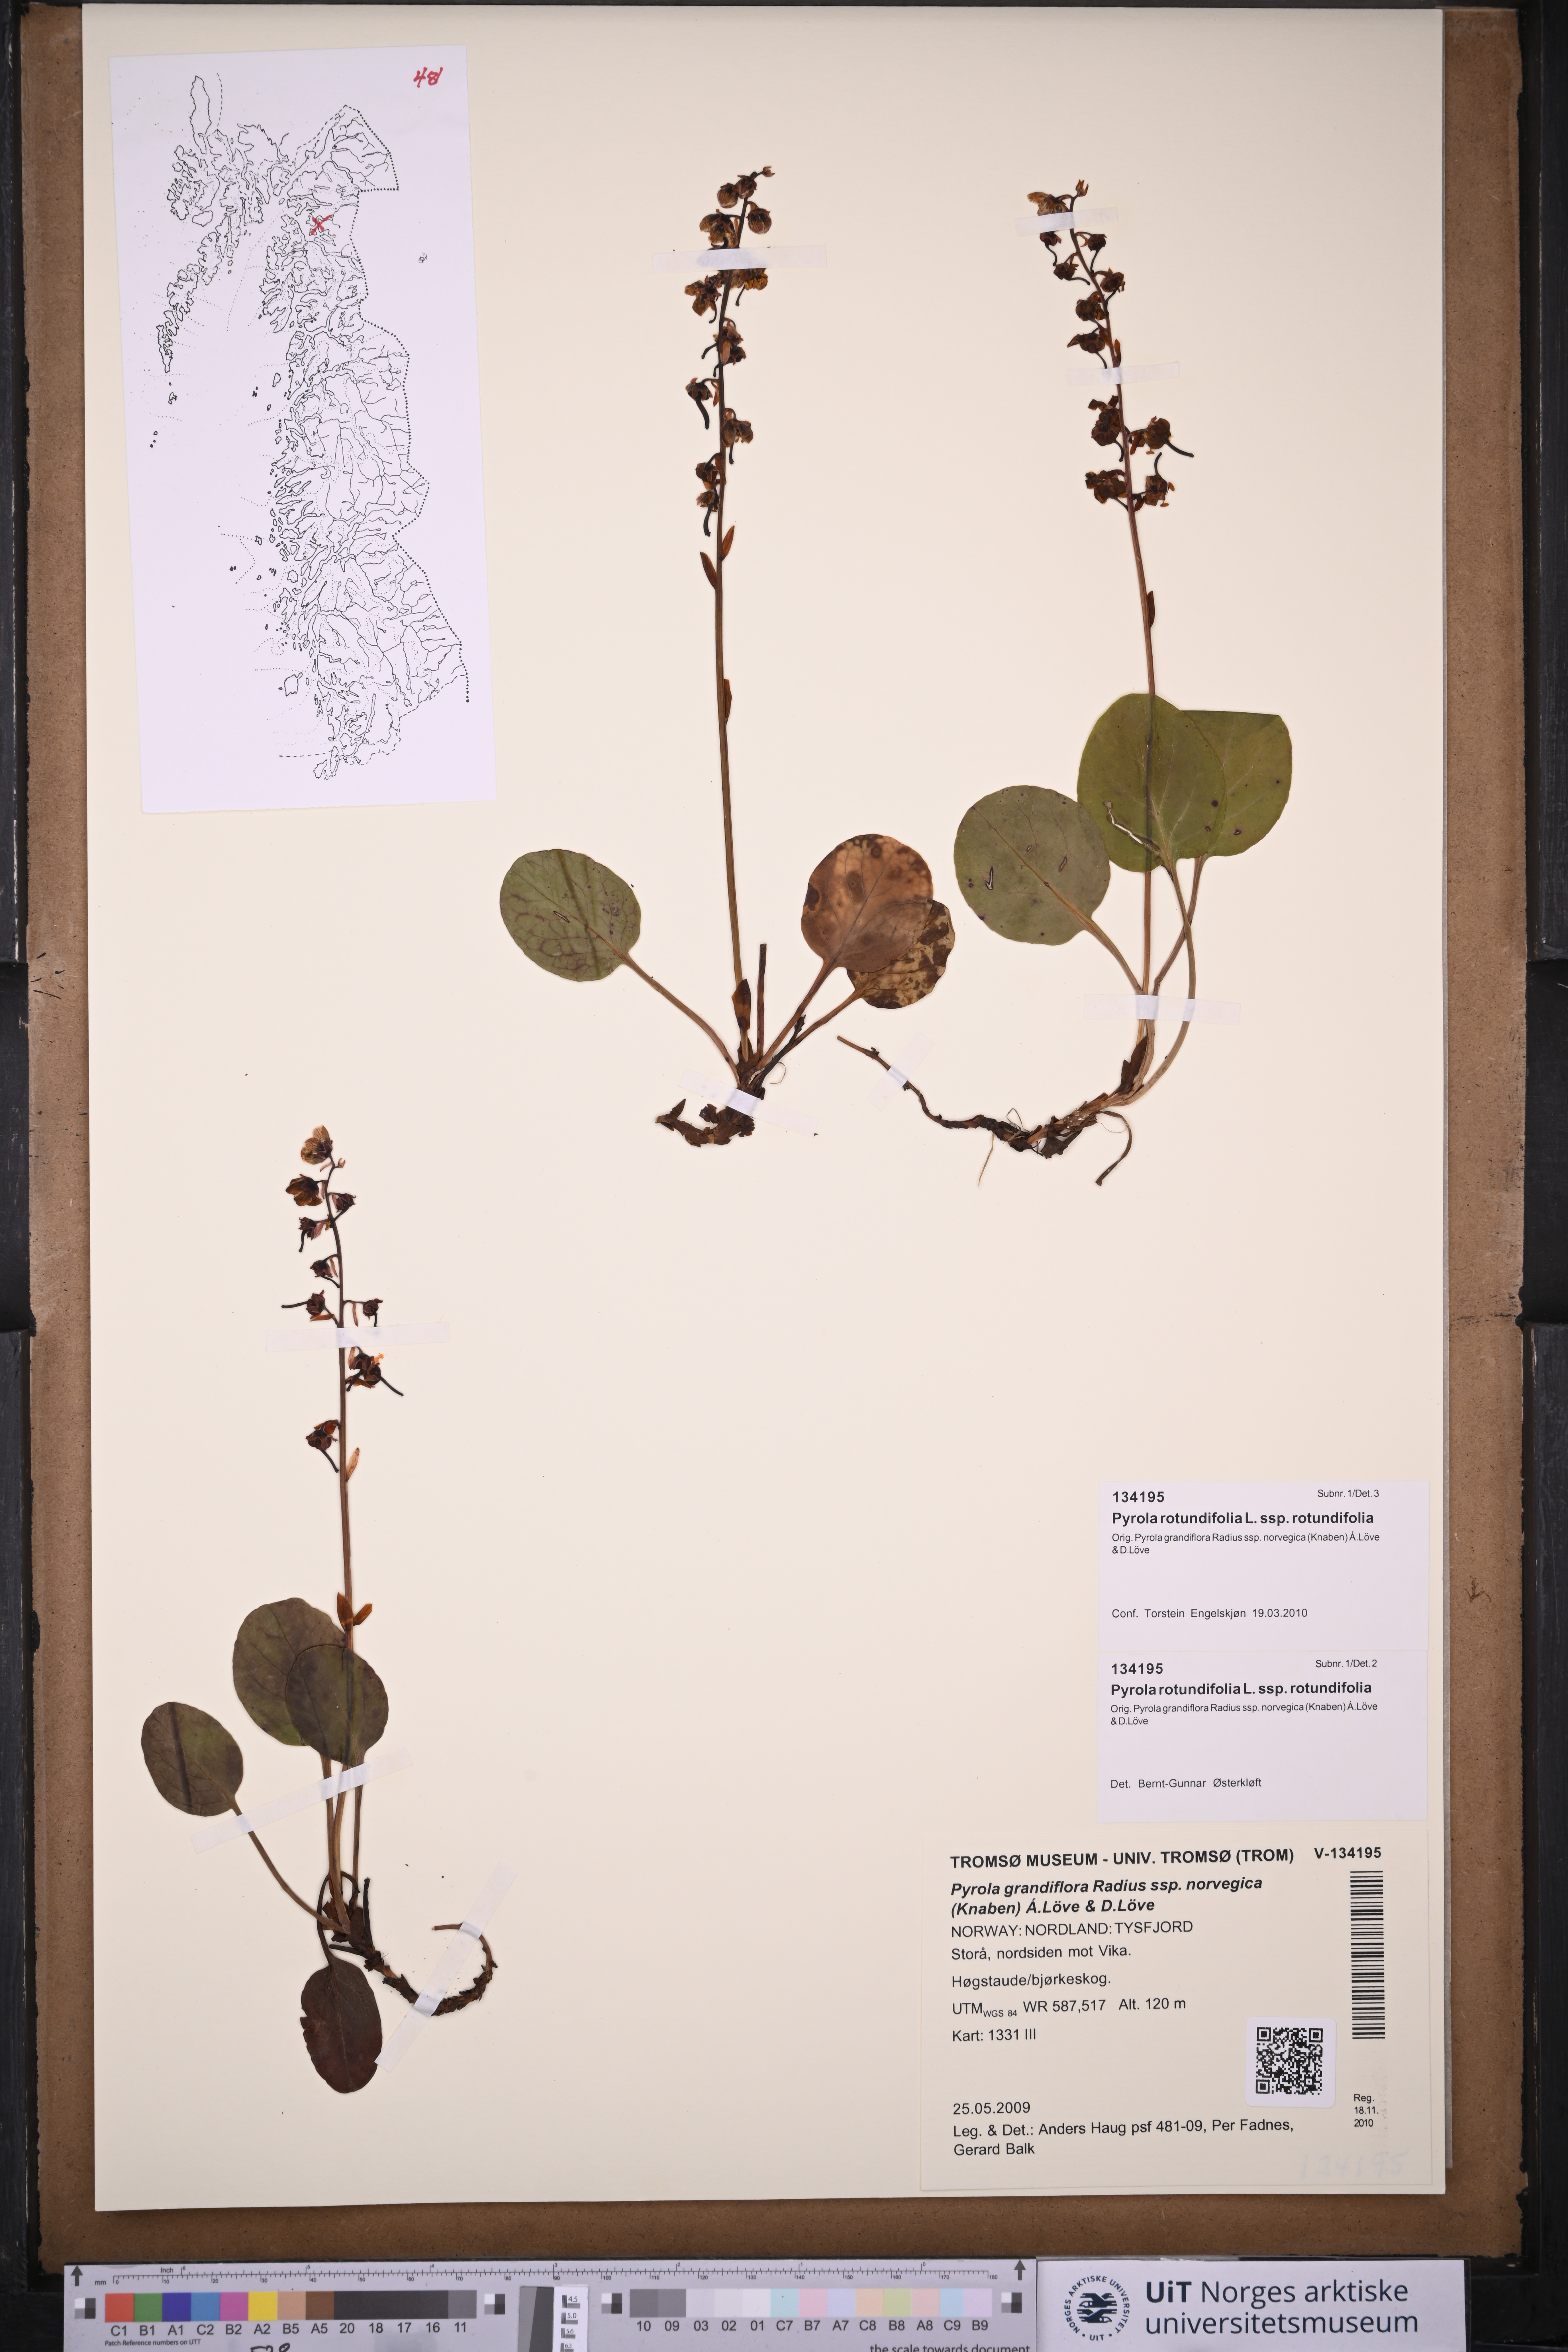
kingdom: Plantae
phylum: Tracheophyta
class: Magnoliopsida
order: Ericales
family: Ericaceae
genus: Pyrola
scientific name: Pyrola rotundifolia
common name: Round-leaved wintergreen
